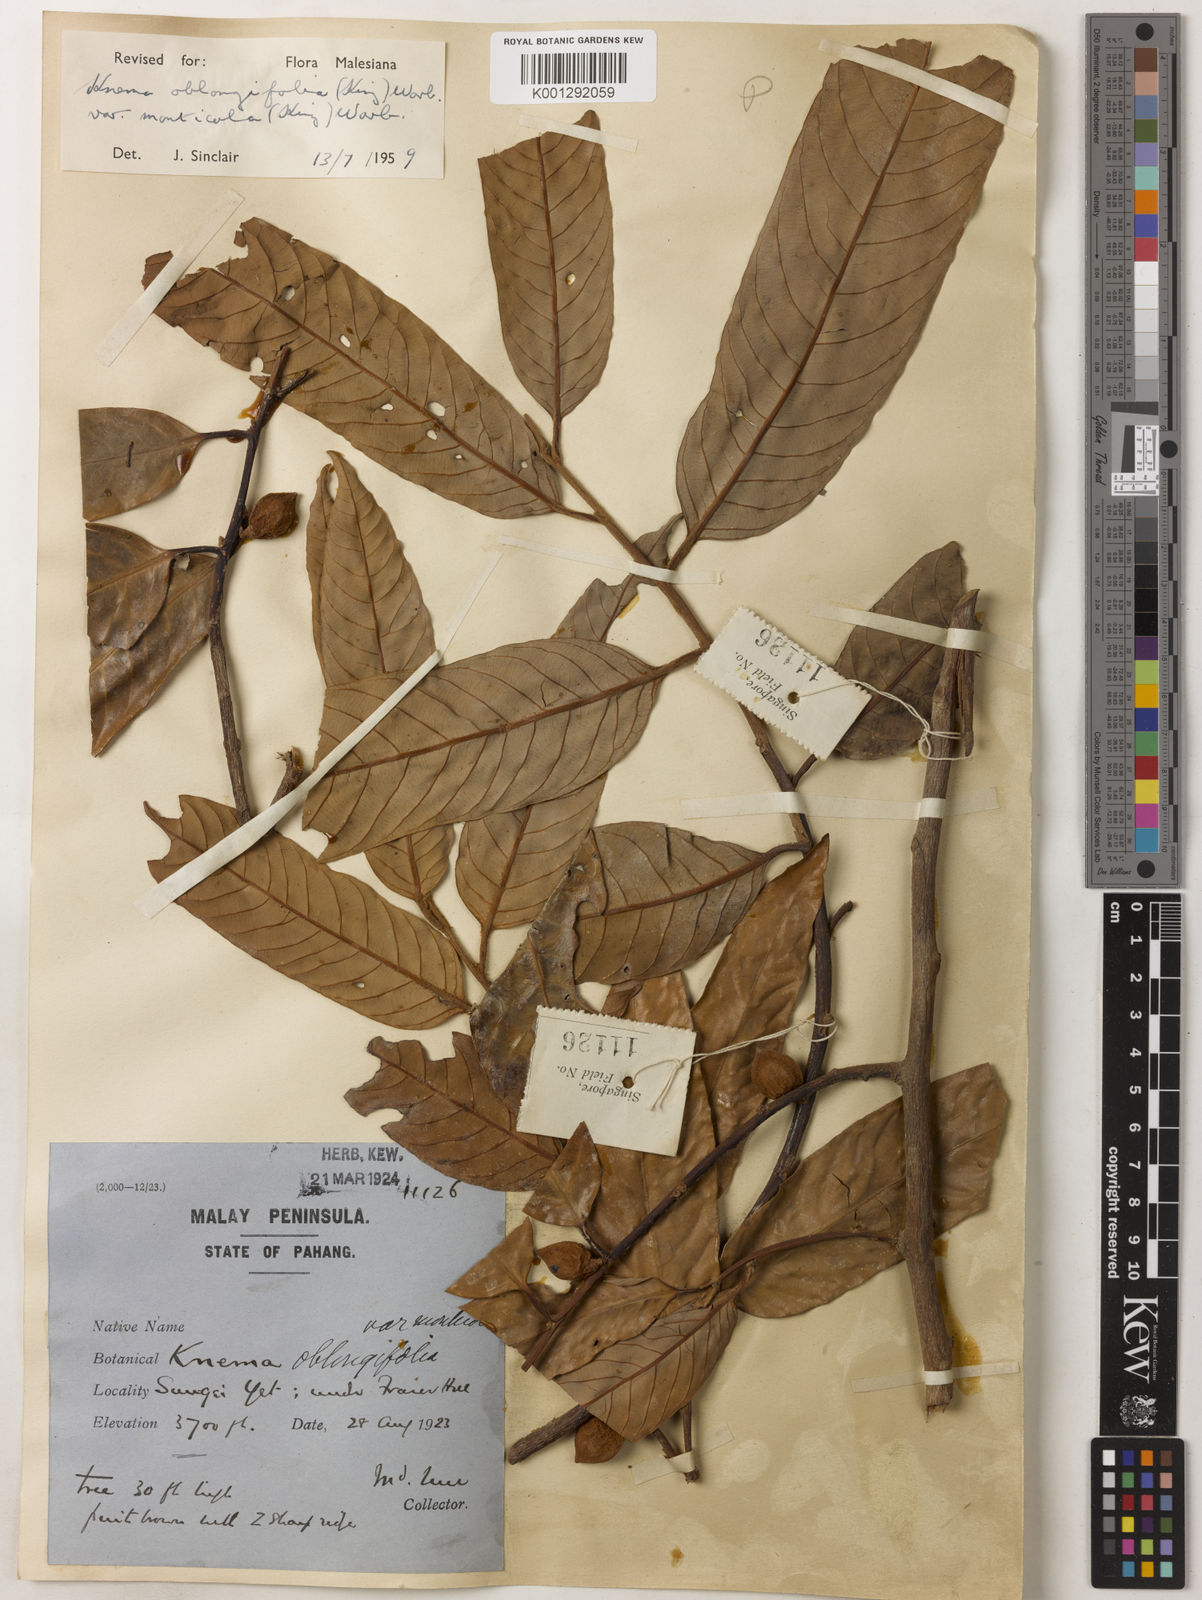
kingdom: Plantae
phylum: Tracheophyta
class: Magnoliopsida
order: Magnoliales
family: Myristicaceae
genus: Knema
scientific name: Knema
